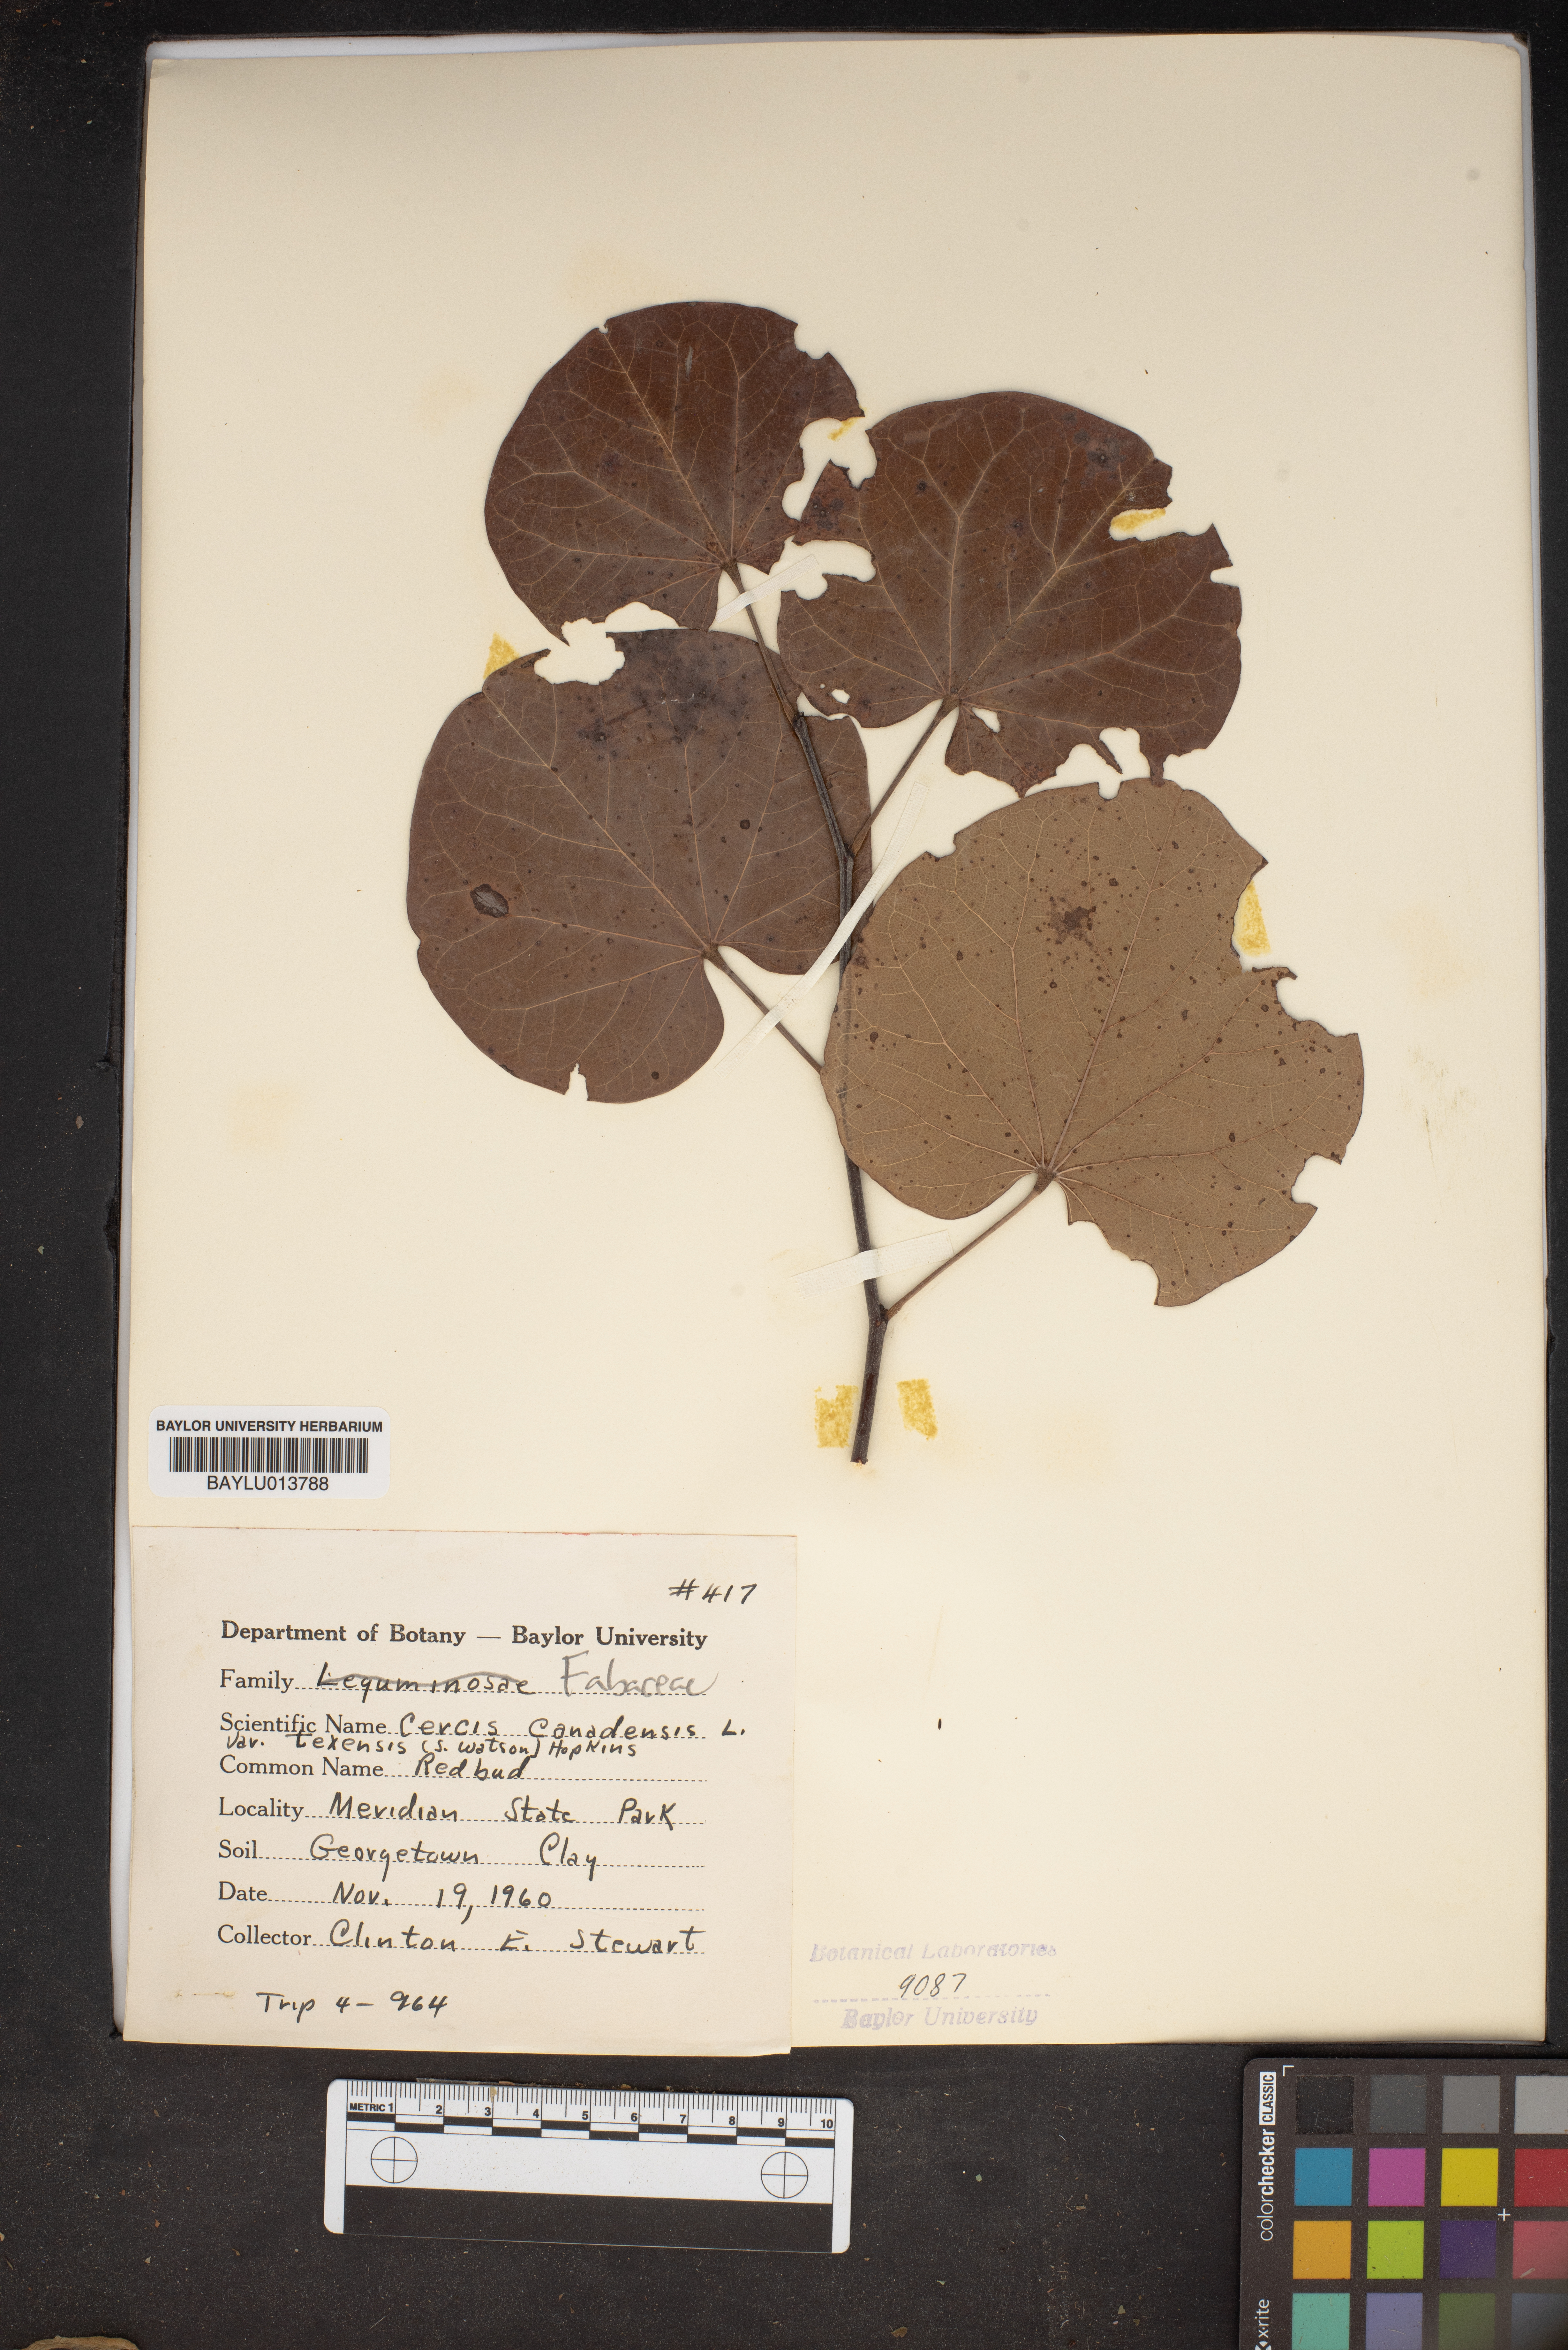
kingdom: Plantae
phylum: Tracheophyta
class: Magnoliopsida
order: Fabales
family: Fabaceae
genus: Cercis
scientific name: Cercis canadensis
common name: Eastern redbud
